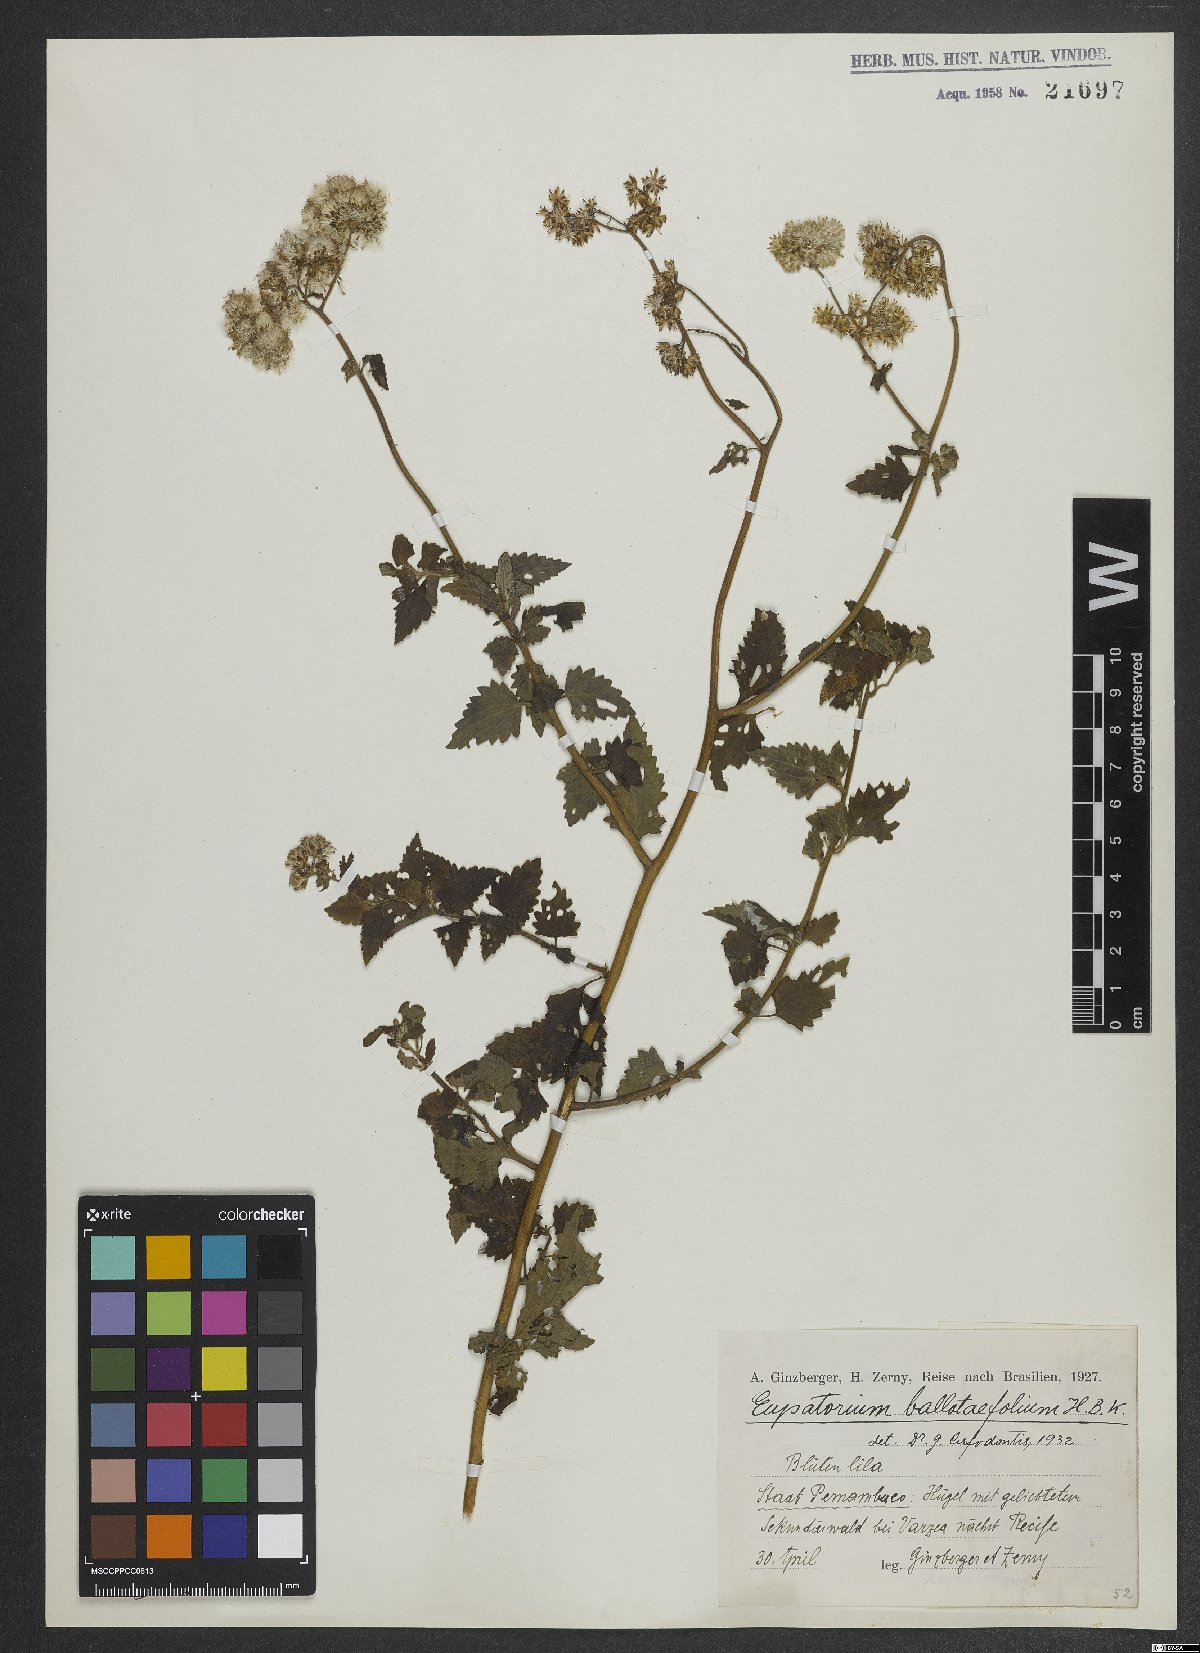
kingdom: Plantae
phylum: Tracheophyta
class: Magnoliopsida
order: Asterales
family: Asteraceae
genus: Lourteigia
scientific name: Lourteigia ballotifolia
